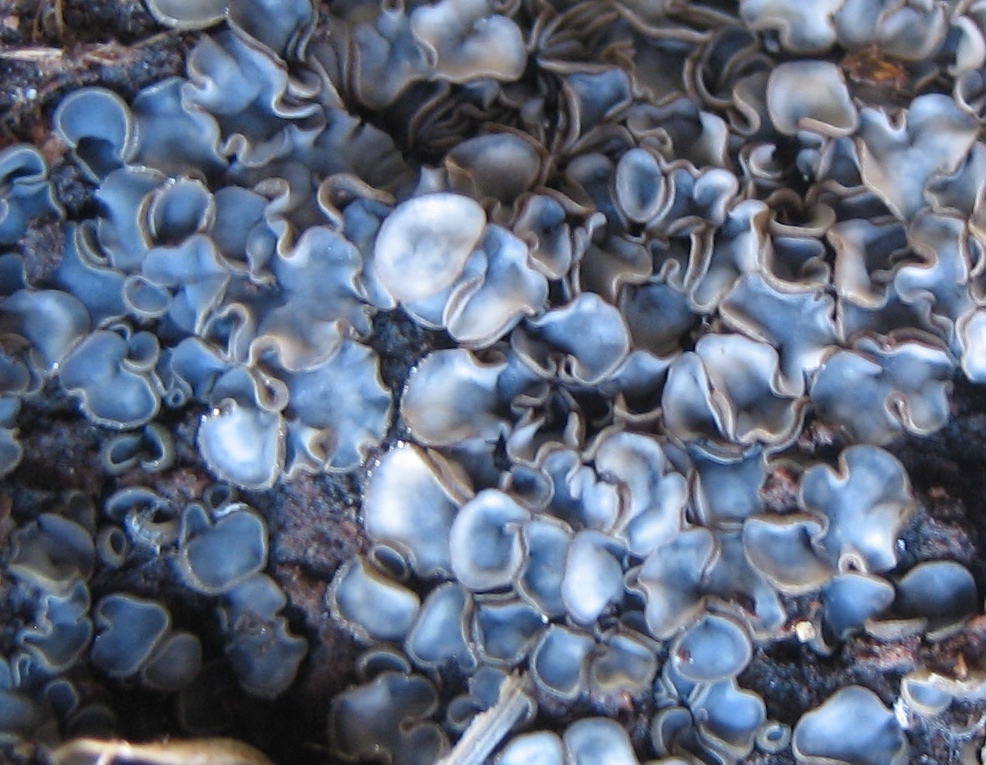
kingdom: Fungi
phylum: Ascomycota
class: Leotiomycetes
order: Helotiales
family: Mollisiaceae
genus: Mollisia
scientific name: Mollisia
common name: gråskive
